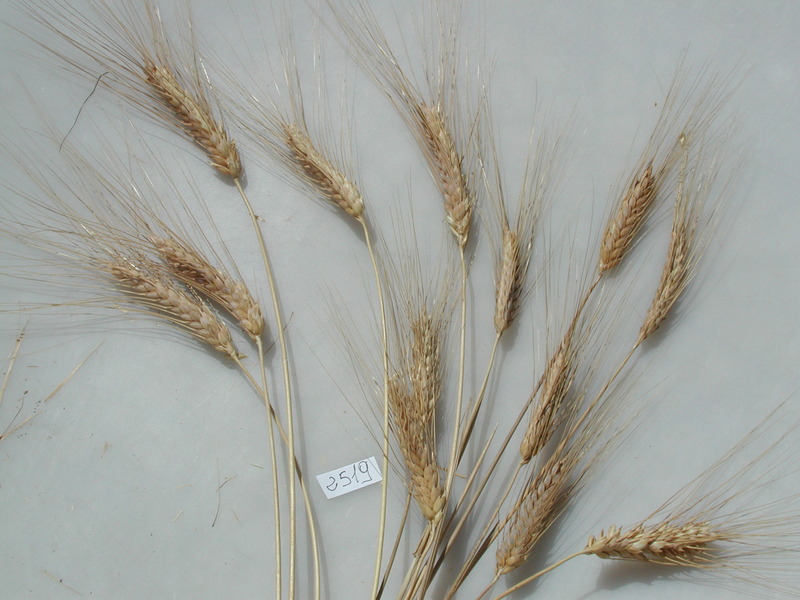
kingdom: Plantae
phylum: Tracheophyta
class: Liliopsida
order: Poales
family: Poaceae
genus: Triticum
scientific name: Triticum turgidum
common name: Wheat
